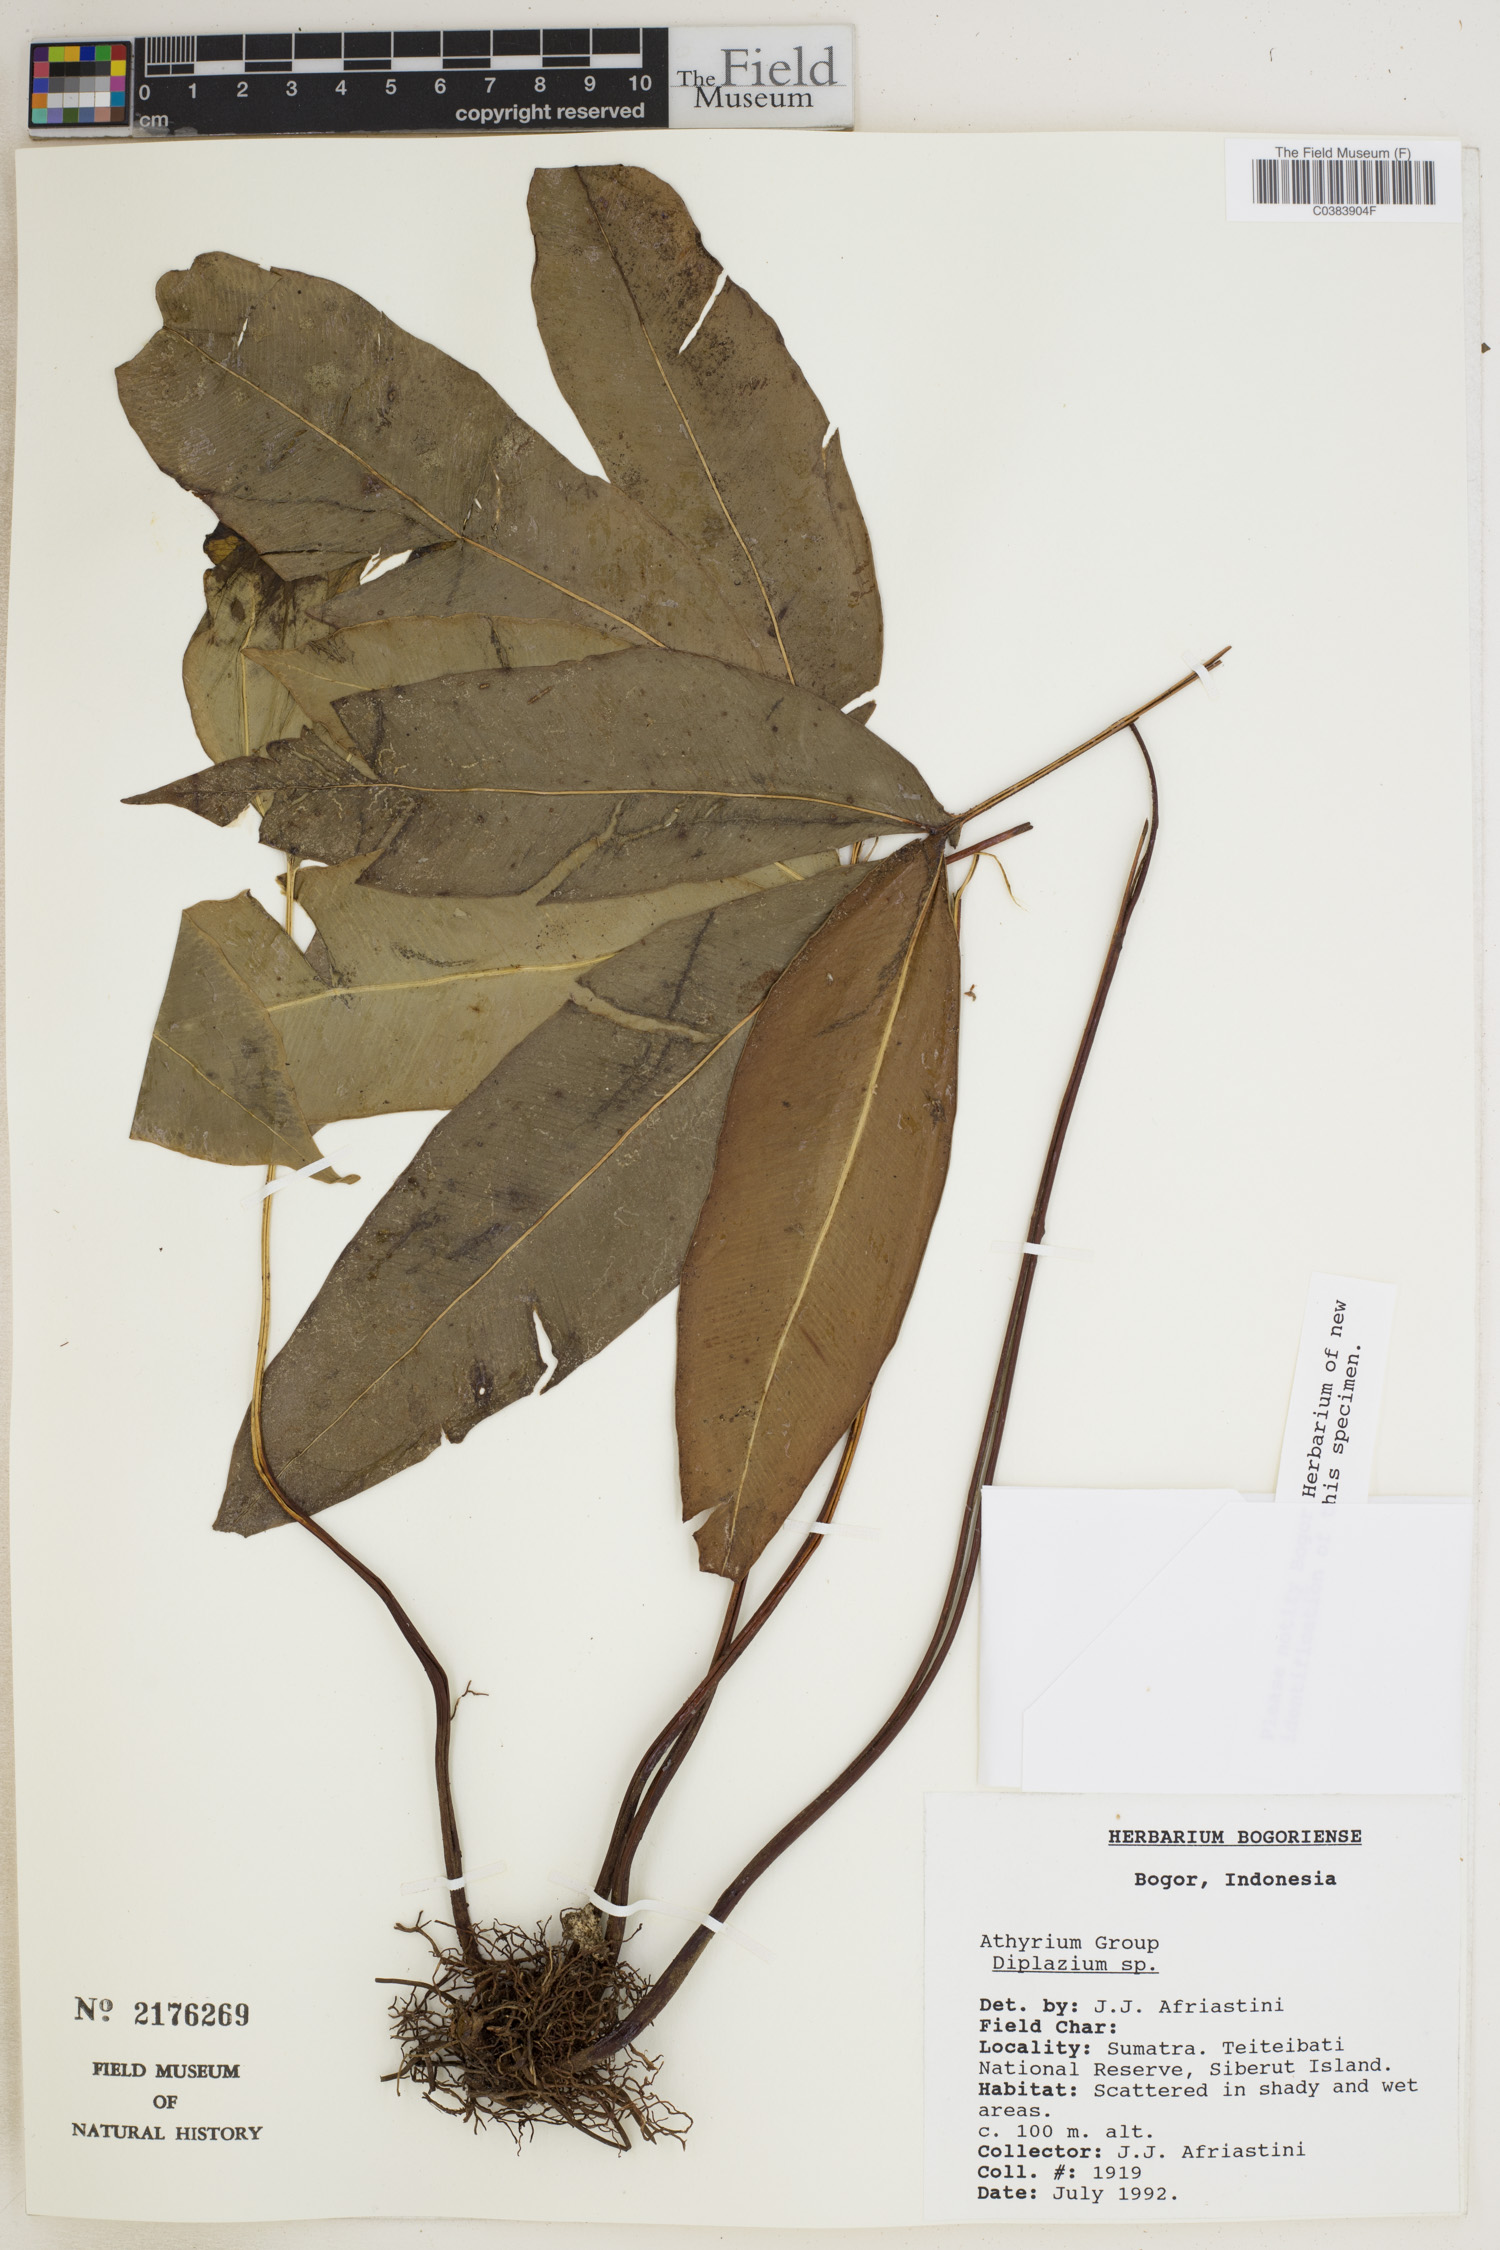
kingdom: Plantae
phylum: Tracheophyta
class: Polypodiopsida
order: Polypodiales
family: Athyriaceae
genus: Diplazium
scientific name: Diplazium
